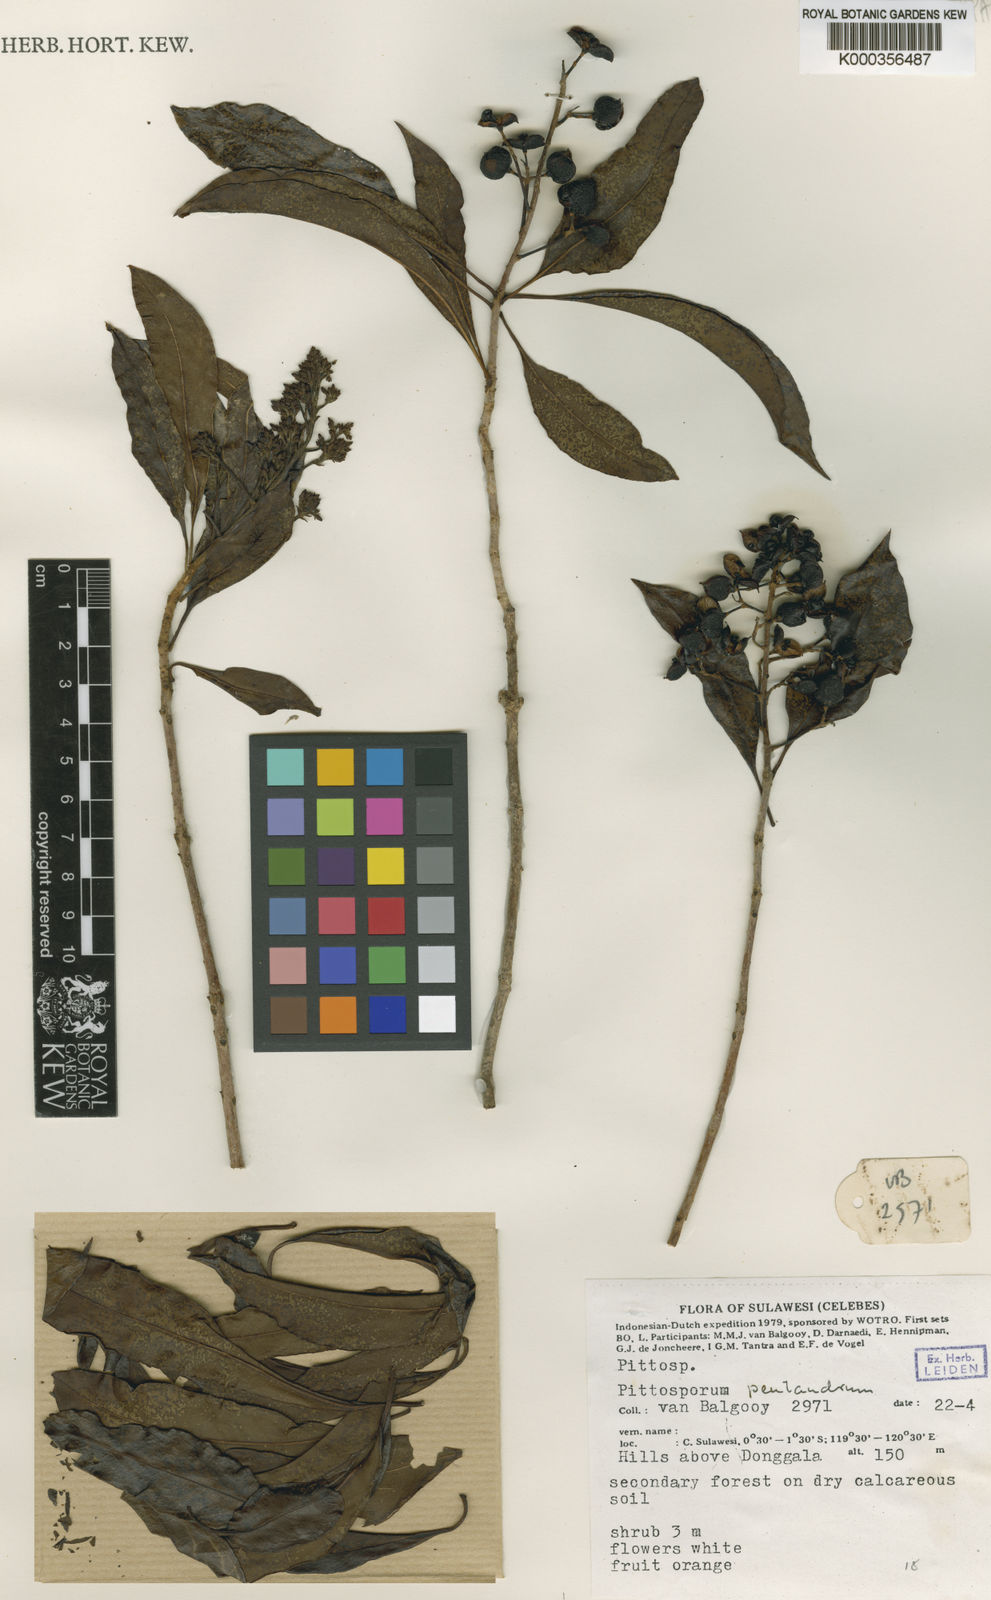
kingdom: Plantae
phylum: Tracheophyta
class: Magnoliopsida
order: Apiales
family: Pittosporaceae
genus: Pittosporum
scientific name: Pittosporum pentandrum
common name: Taiwanese cheesewood
